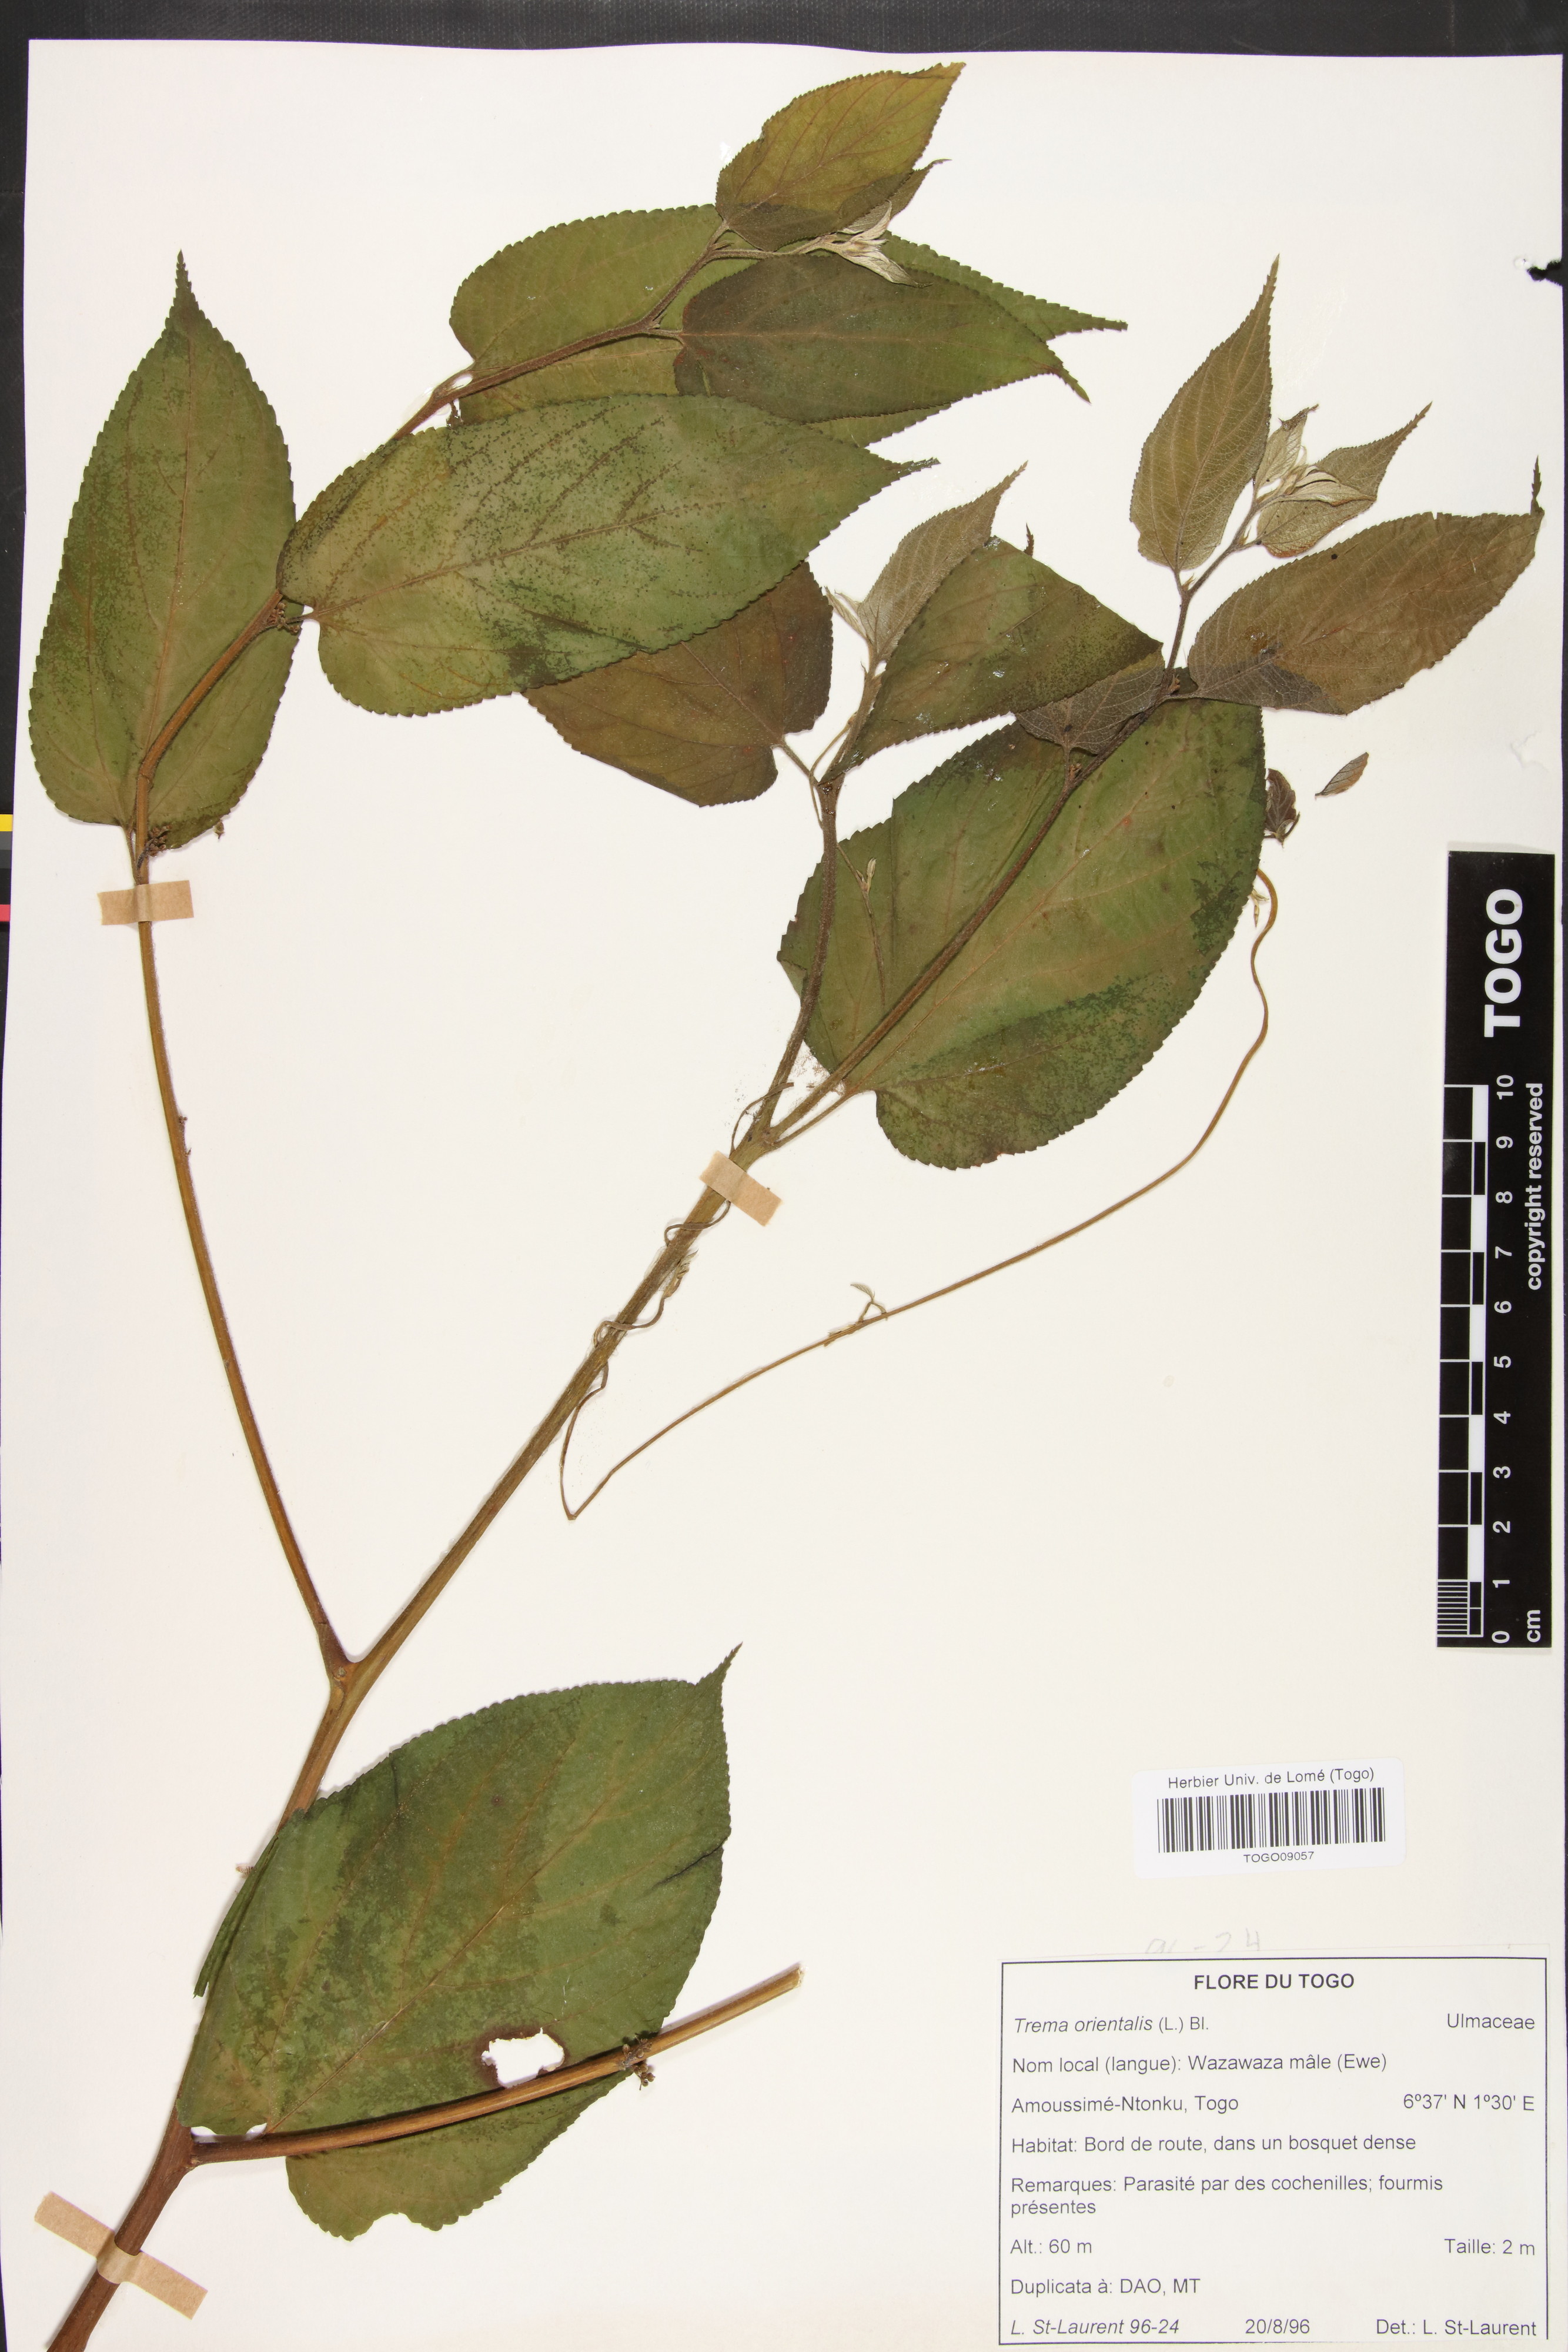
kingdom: Plantae
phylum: Tracheophyta
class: Magnoliopsida
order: Rosales
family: Cannabaceae
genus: Trema
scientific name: Trema orientale
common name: Indian charcoal tree
